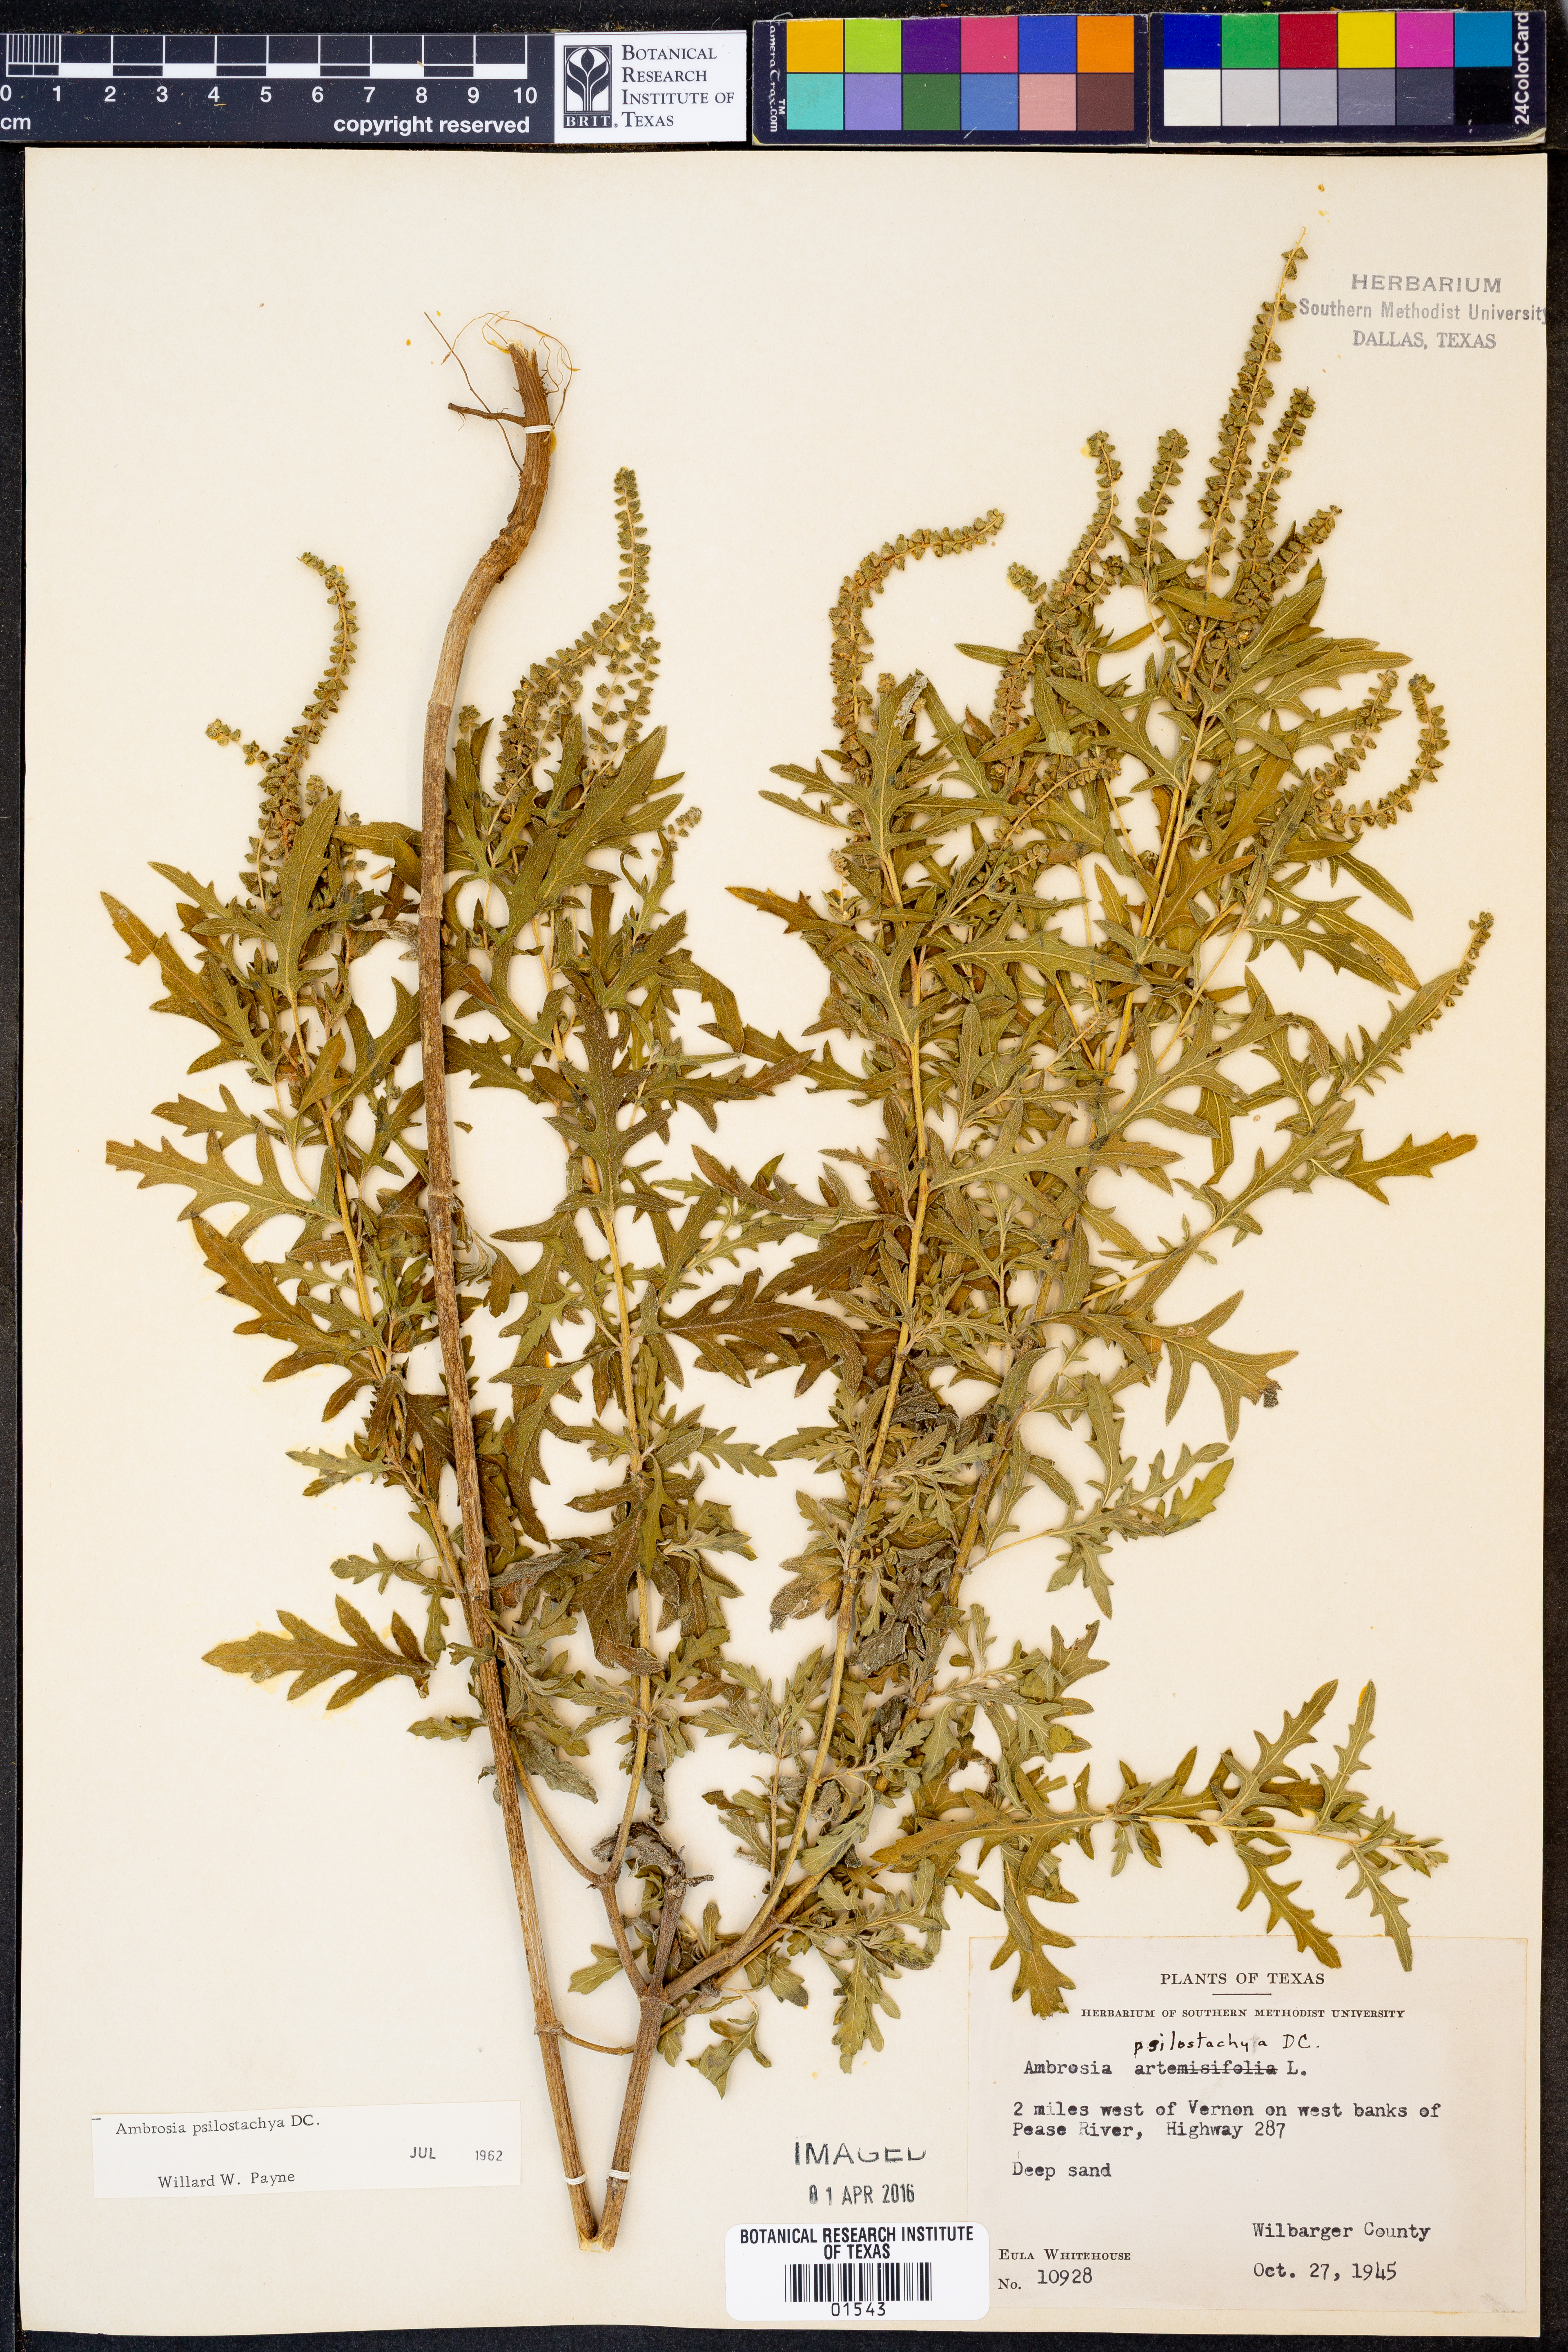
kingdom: Plantae
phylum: Tracheophyta
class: Magnoliopsida
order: Asterales
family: Asteraceae
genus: Ambrosia
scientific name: Ambrosia psilostachya
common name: Perennial ragweed
